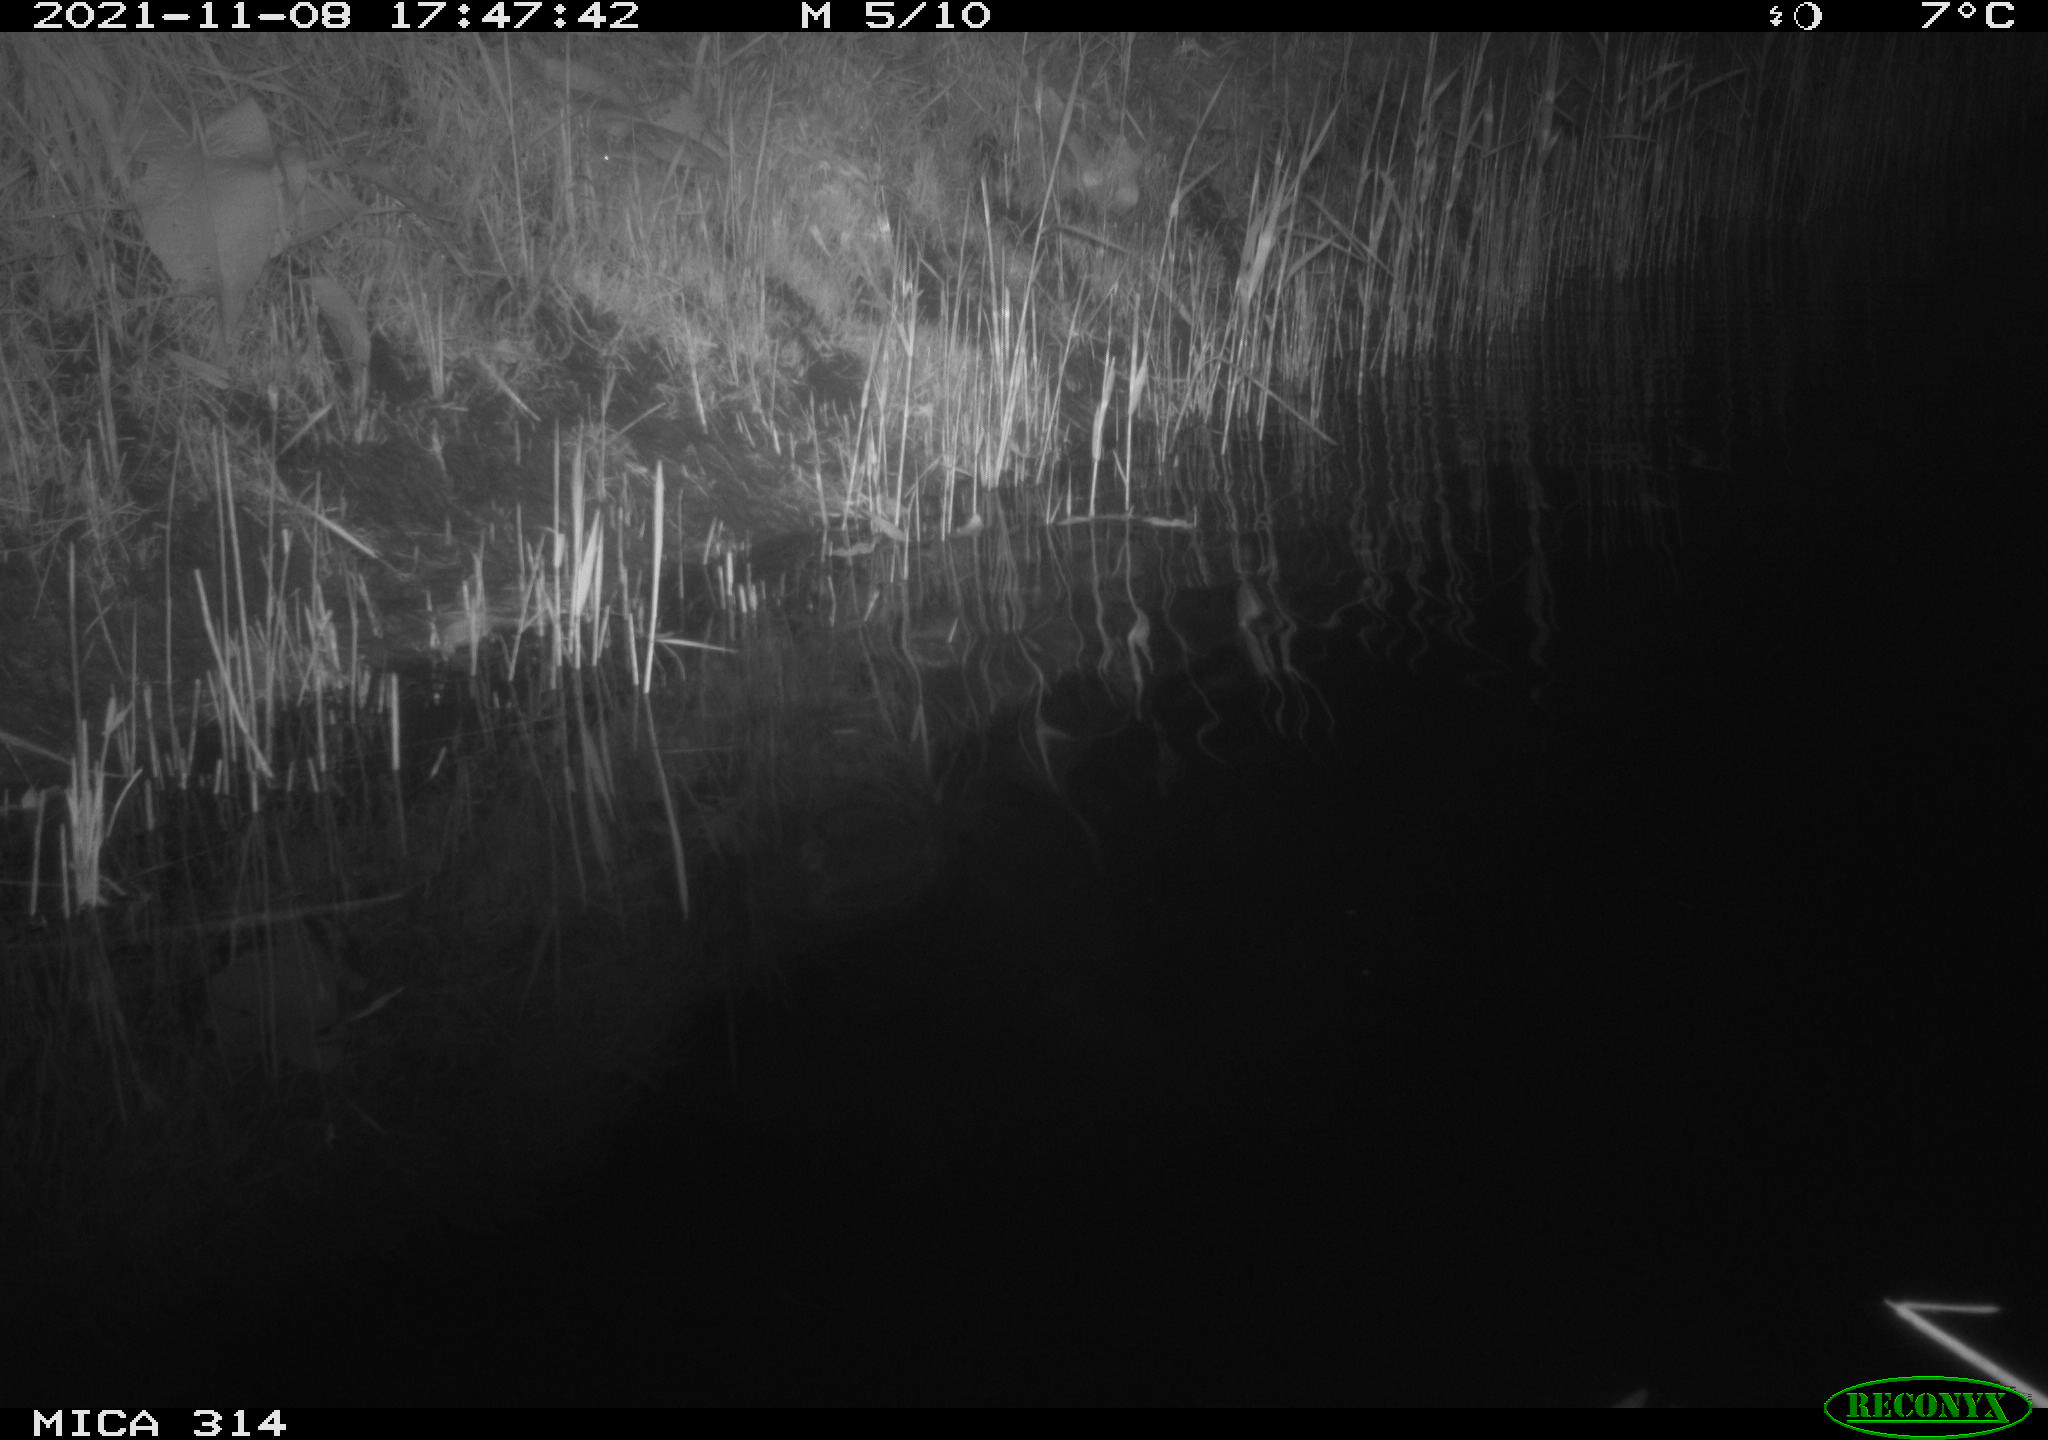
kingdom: Animalia
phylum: Chordata
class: Aves
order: Gruiformes
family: Rallidae
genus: Gallinula
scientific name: Gallinula chloropus
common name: Common moorhen
